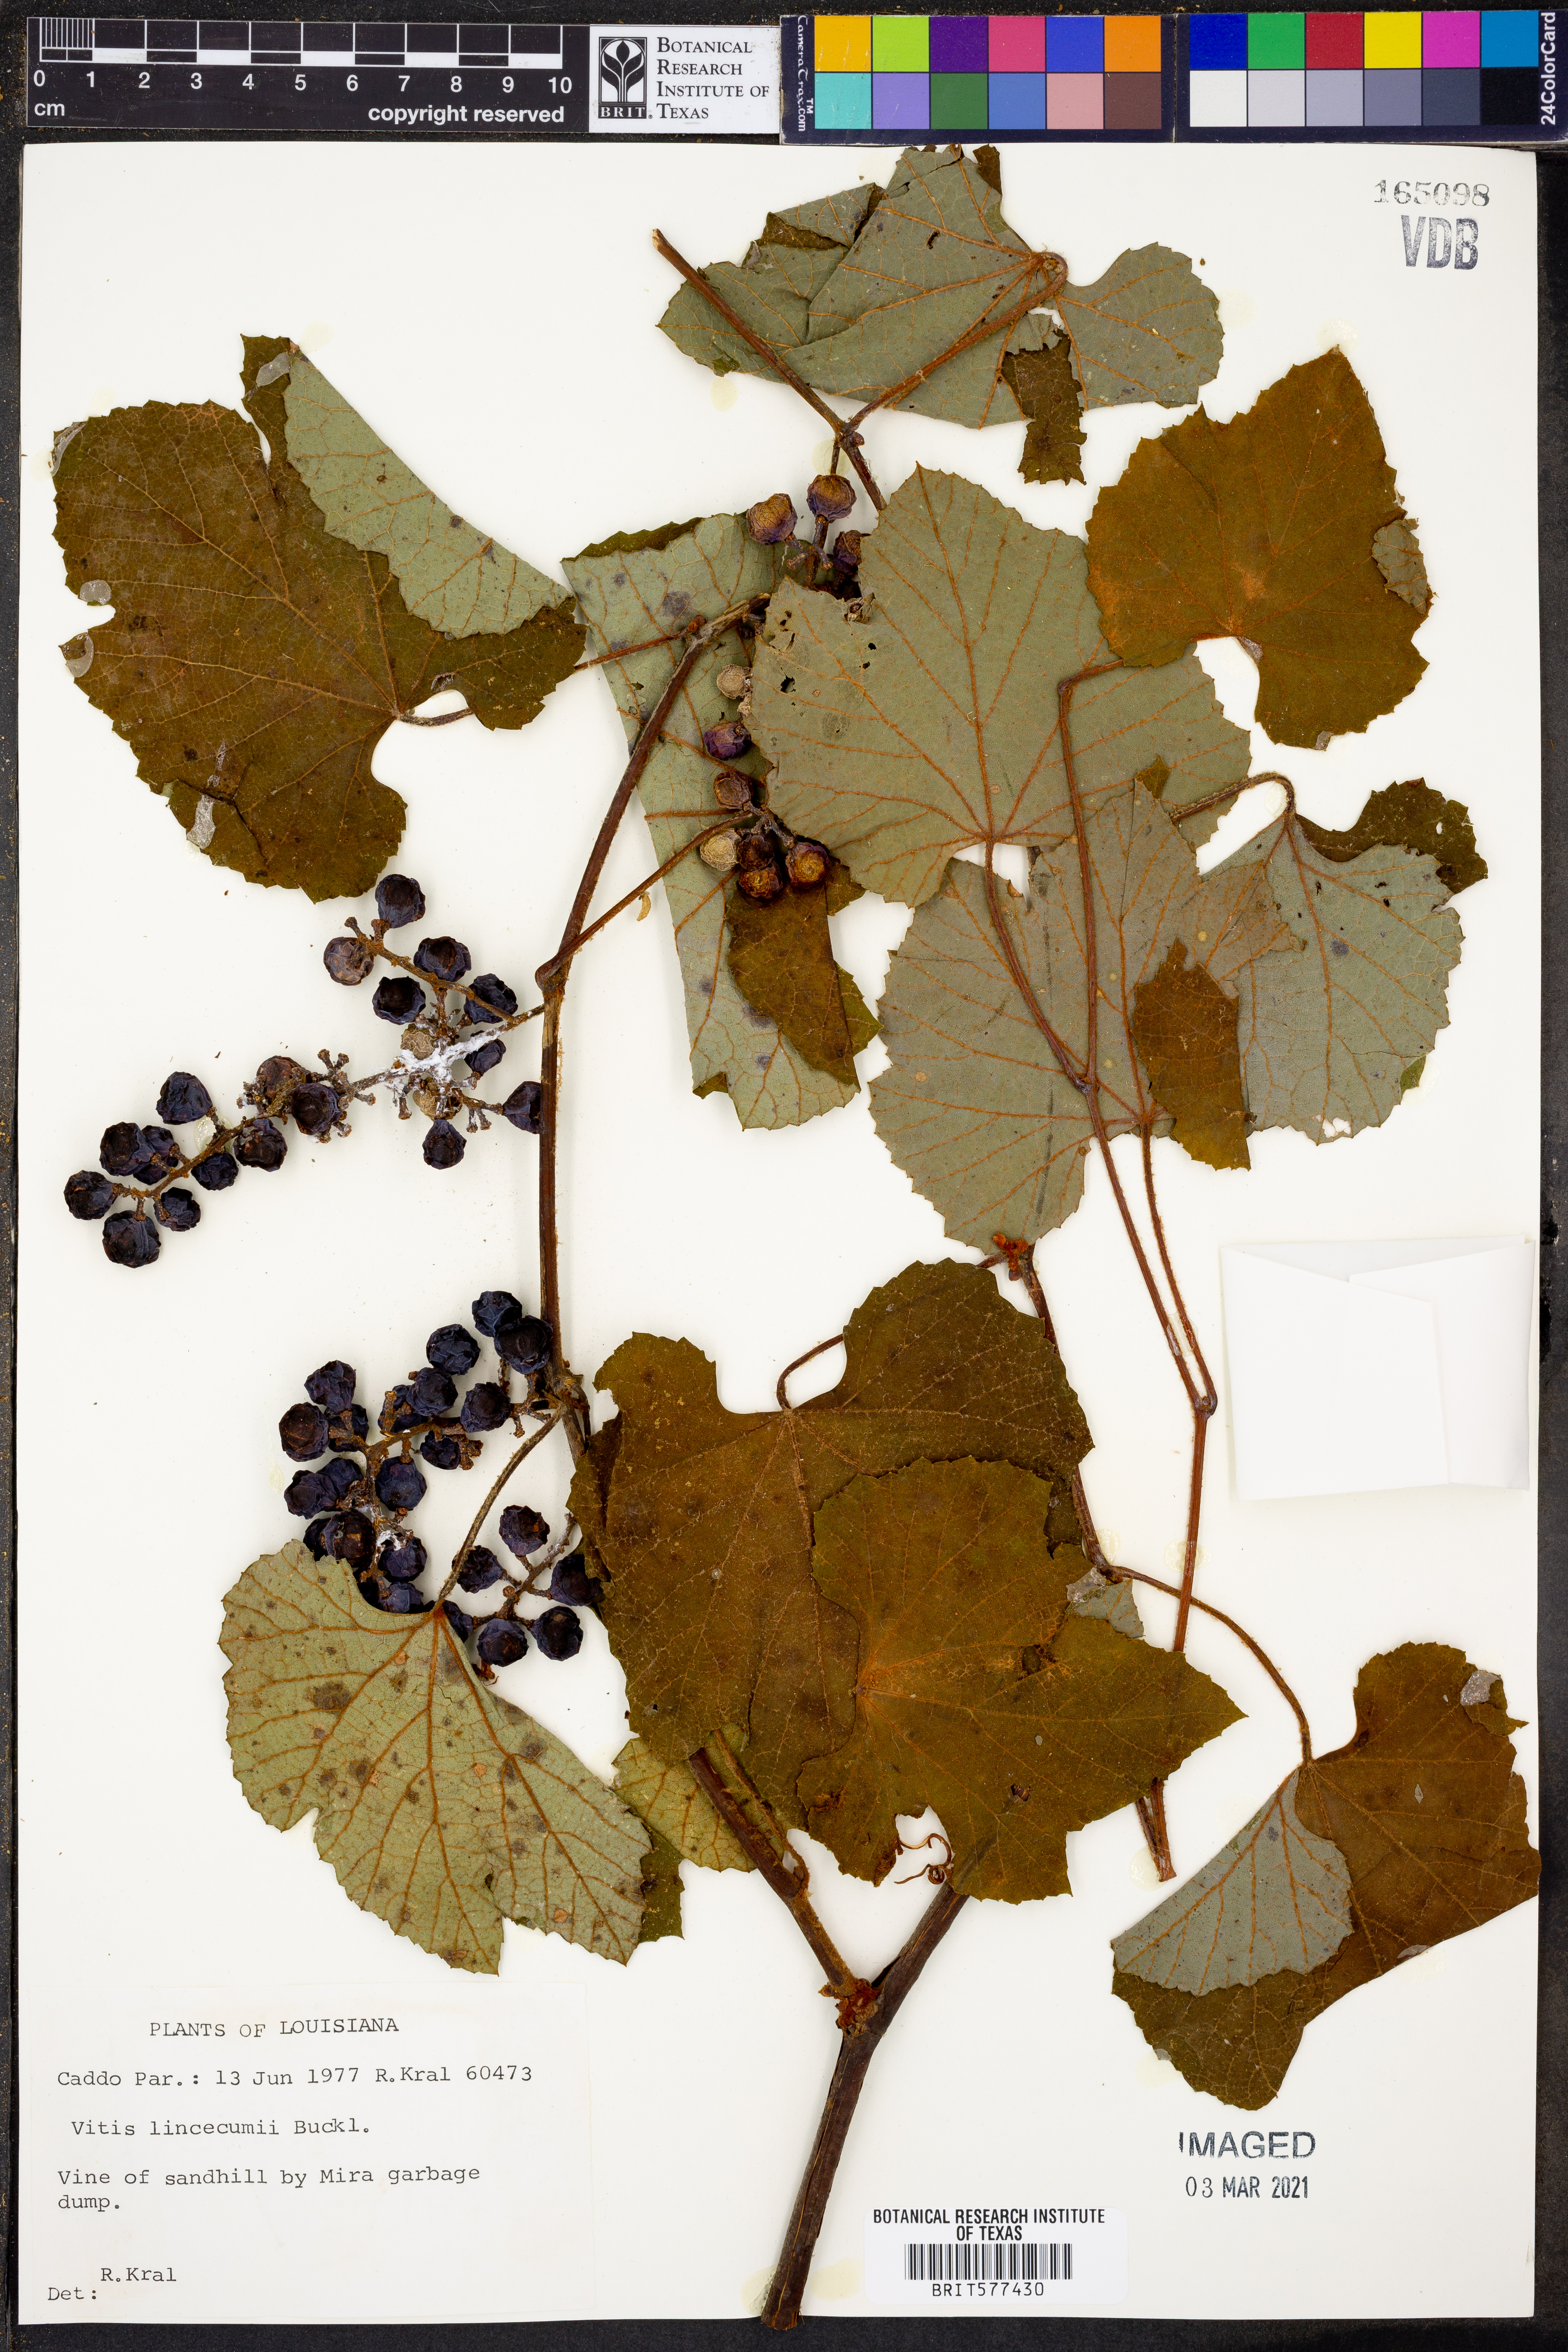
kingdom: Plantae
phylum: Tracheophyta
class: Magnoliopsida
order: Vitales
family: Vitaceae
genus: Vitis
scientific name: Vitis aestivalis
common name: Pigeon grape
